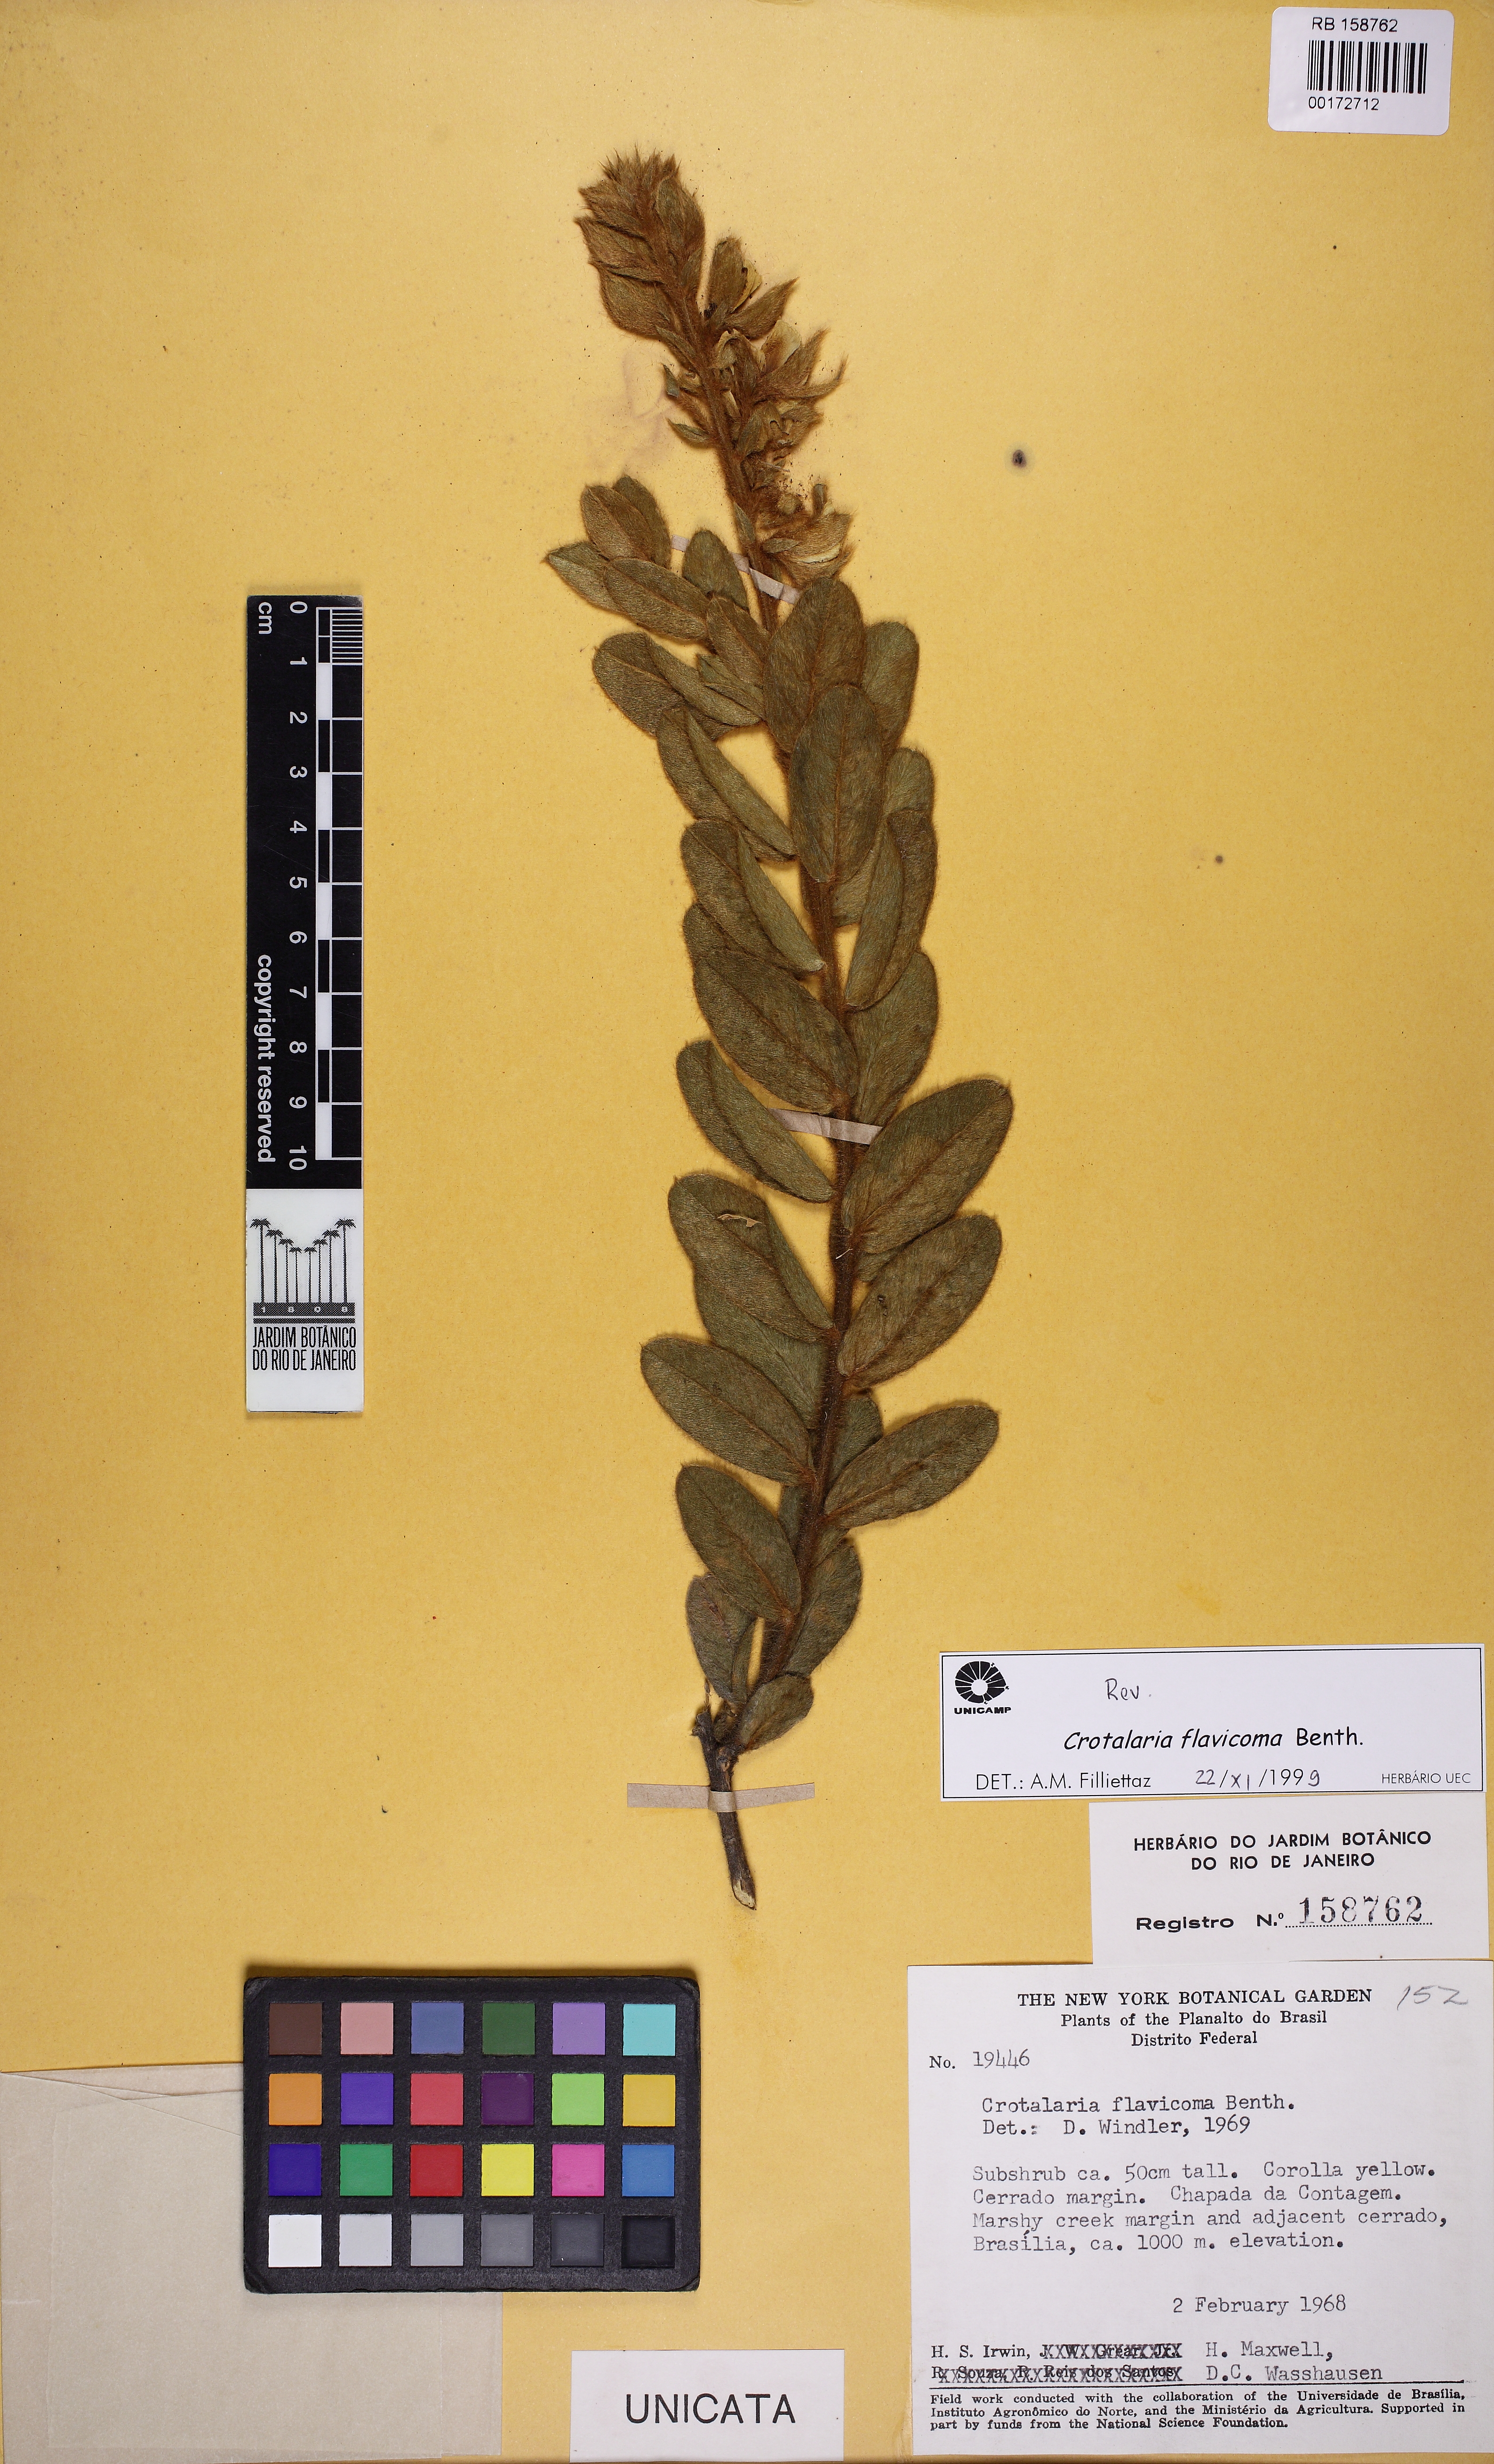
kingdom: Plantae
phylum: Tracheophyta
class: Magnoliopsida
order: Fabales
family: Fabaceae
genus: Crotalaria
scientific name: Crotalaria flavicoma
